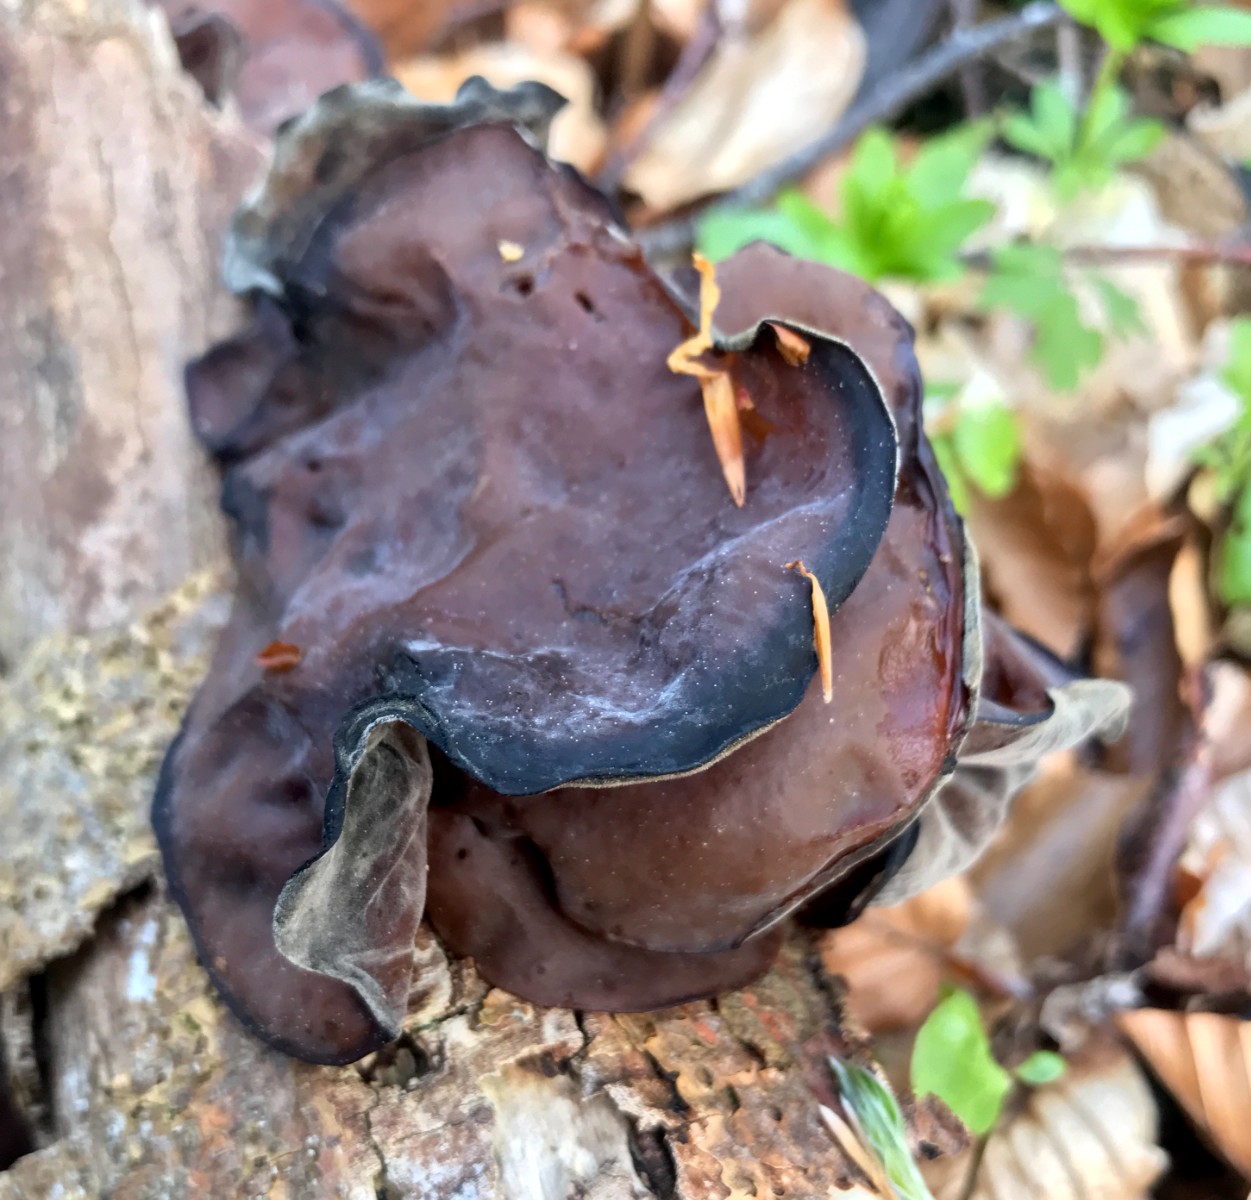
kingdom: Fungi
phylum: Basidiomycota
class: Agaricomycetes
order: Auriculariales
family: Auriculariaceae
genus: Auricularia
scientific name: Auricularia auricula-judae
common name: almindelig judasøre
